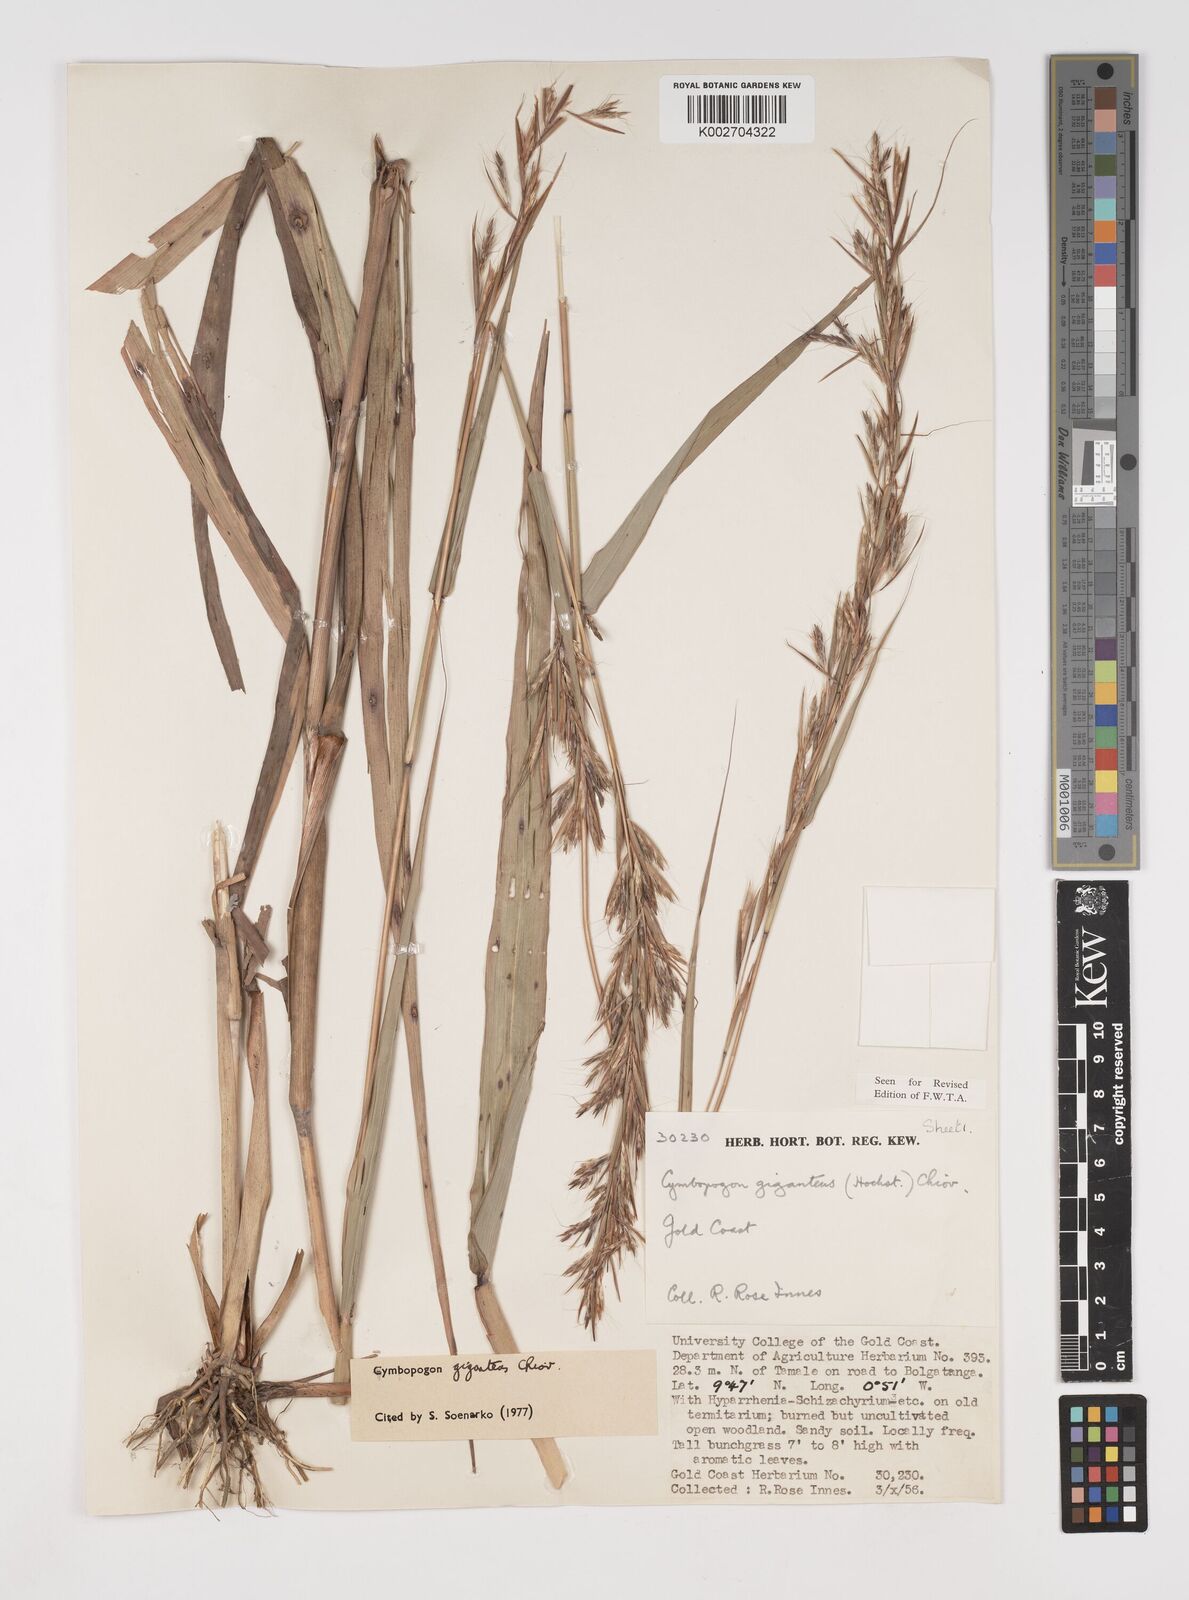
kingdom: Plantae
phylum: Tracheophyta
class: Liliopsida
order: Poales
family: Poaceae
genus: Cymbopogon
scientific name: Cymbopogon giganteus
